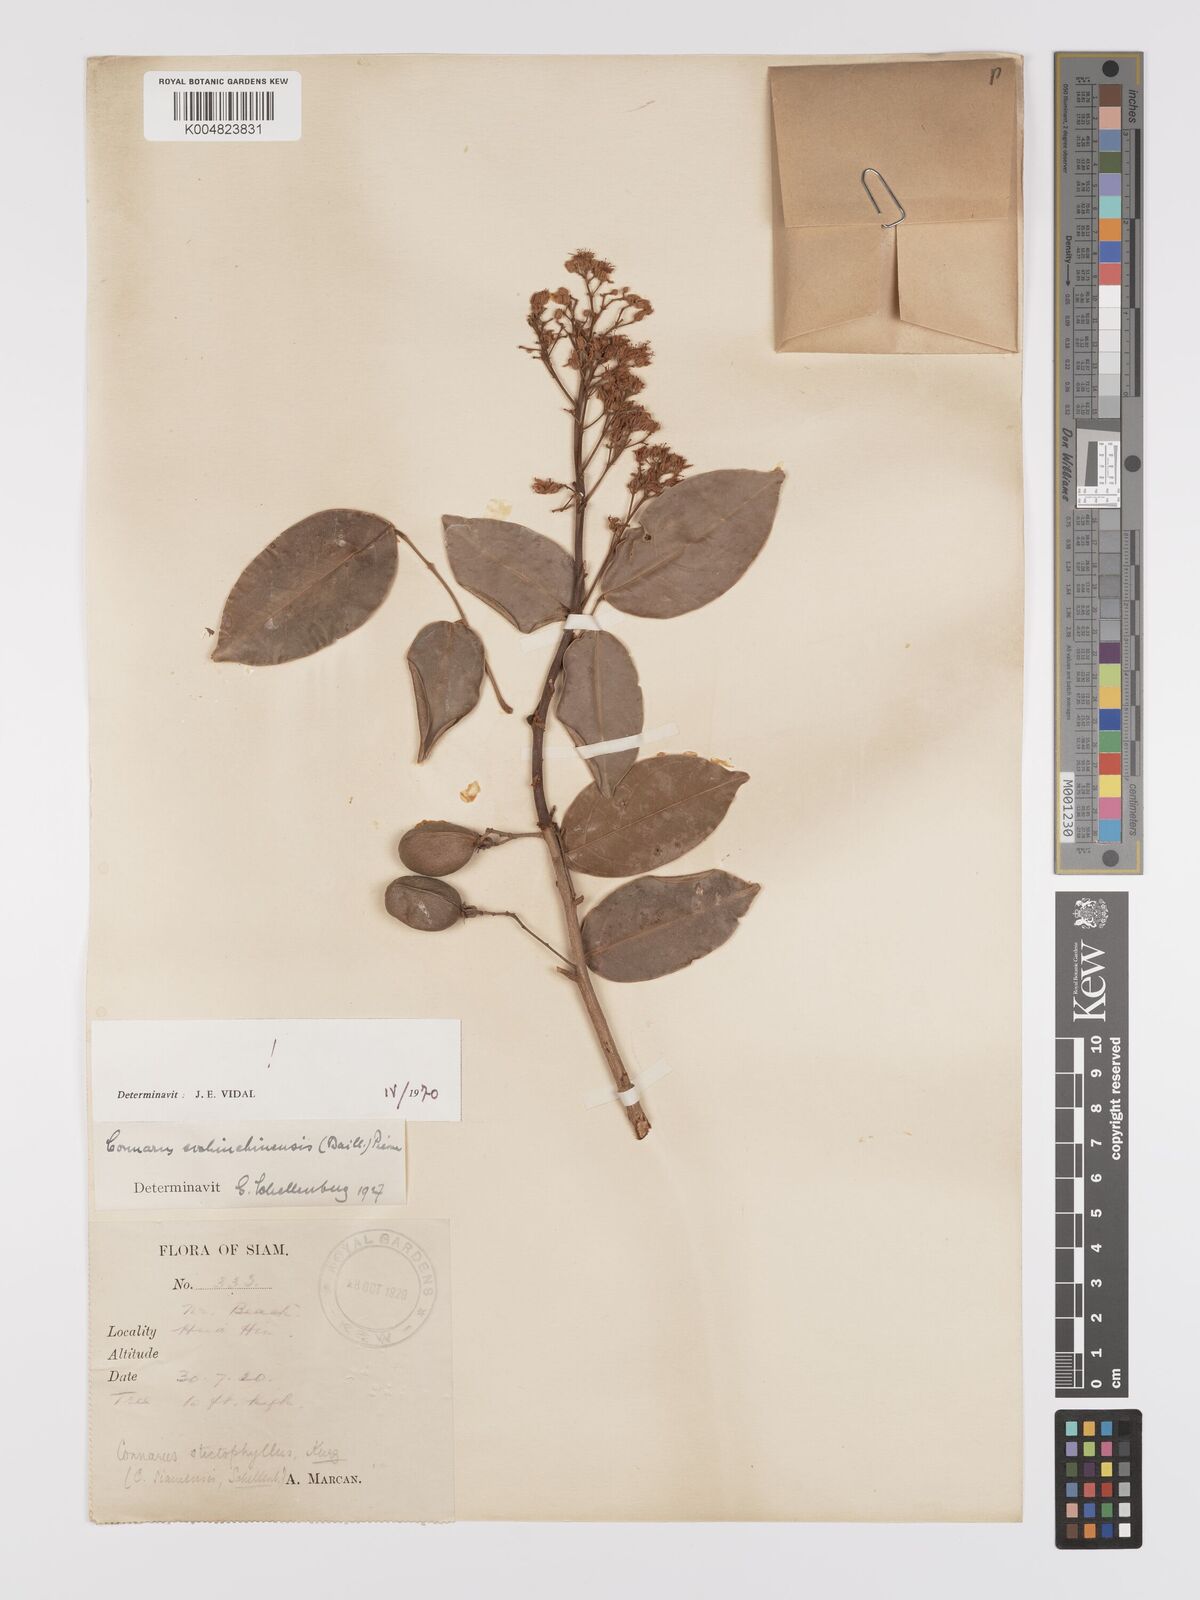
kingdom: Plantae
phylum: Tracheophyta
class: Magnoliopsida
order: Oxalidales
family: Connaraceae
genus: Connarus
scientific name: Connarus cochinchinensis
